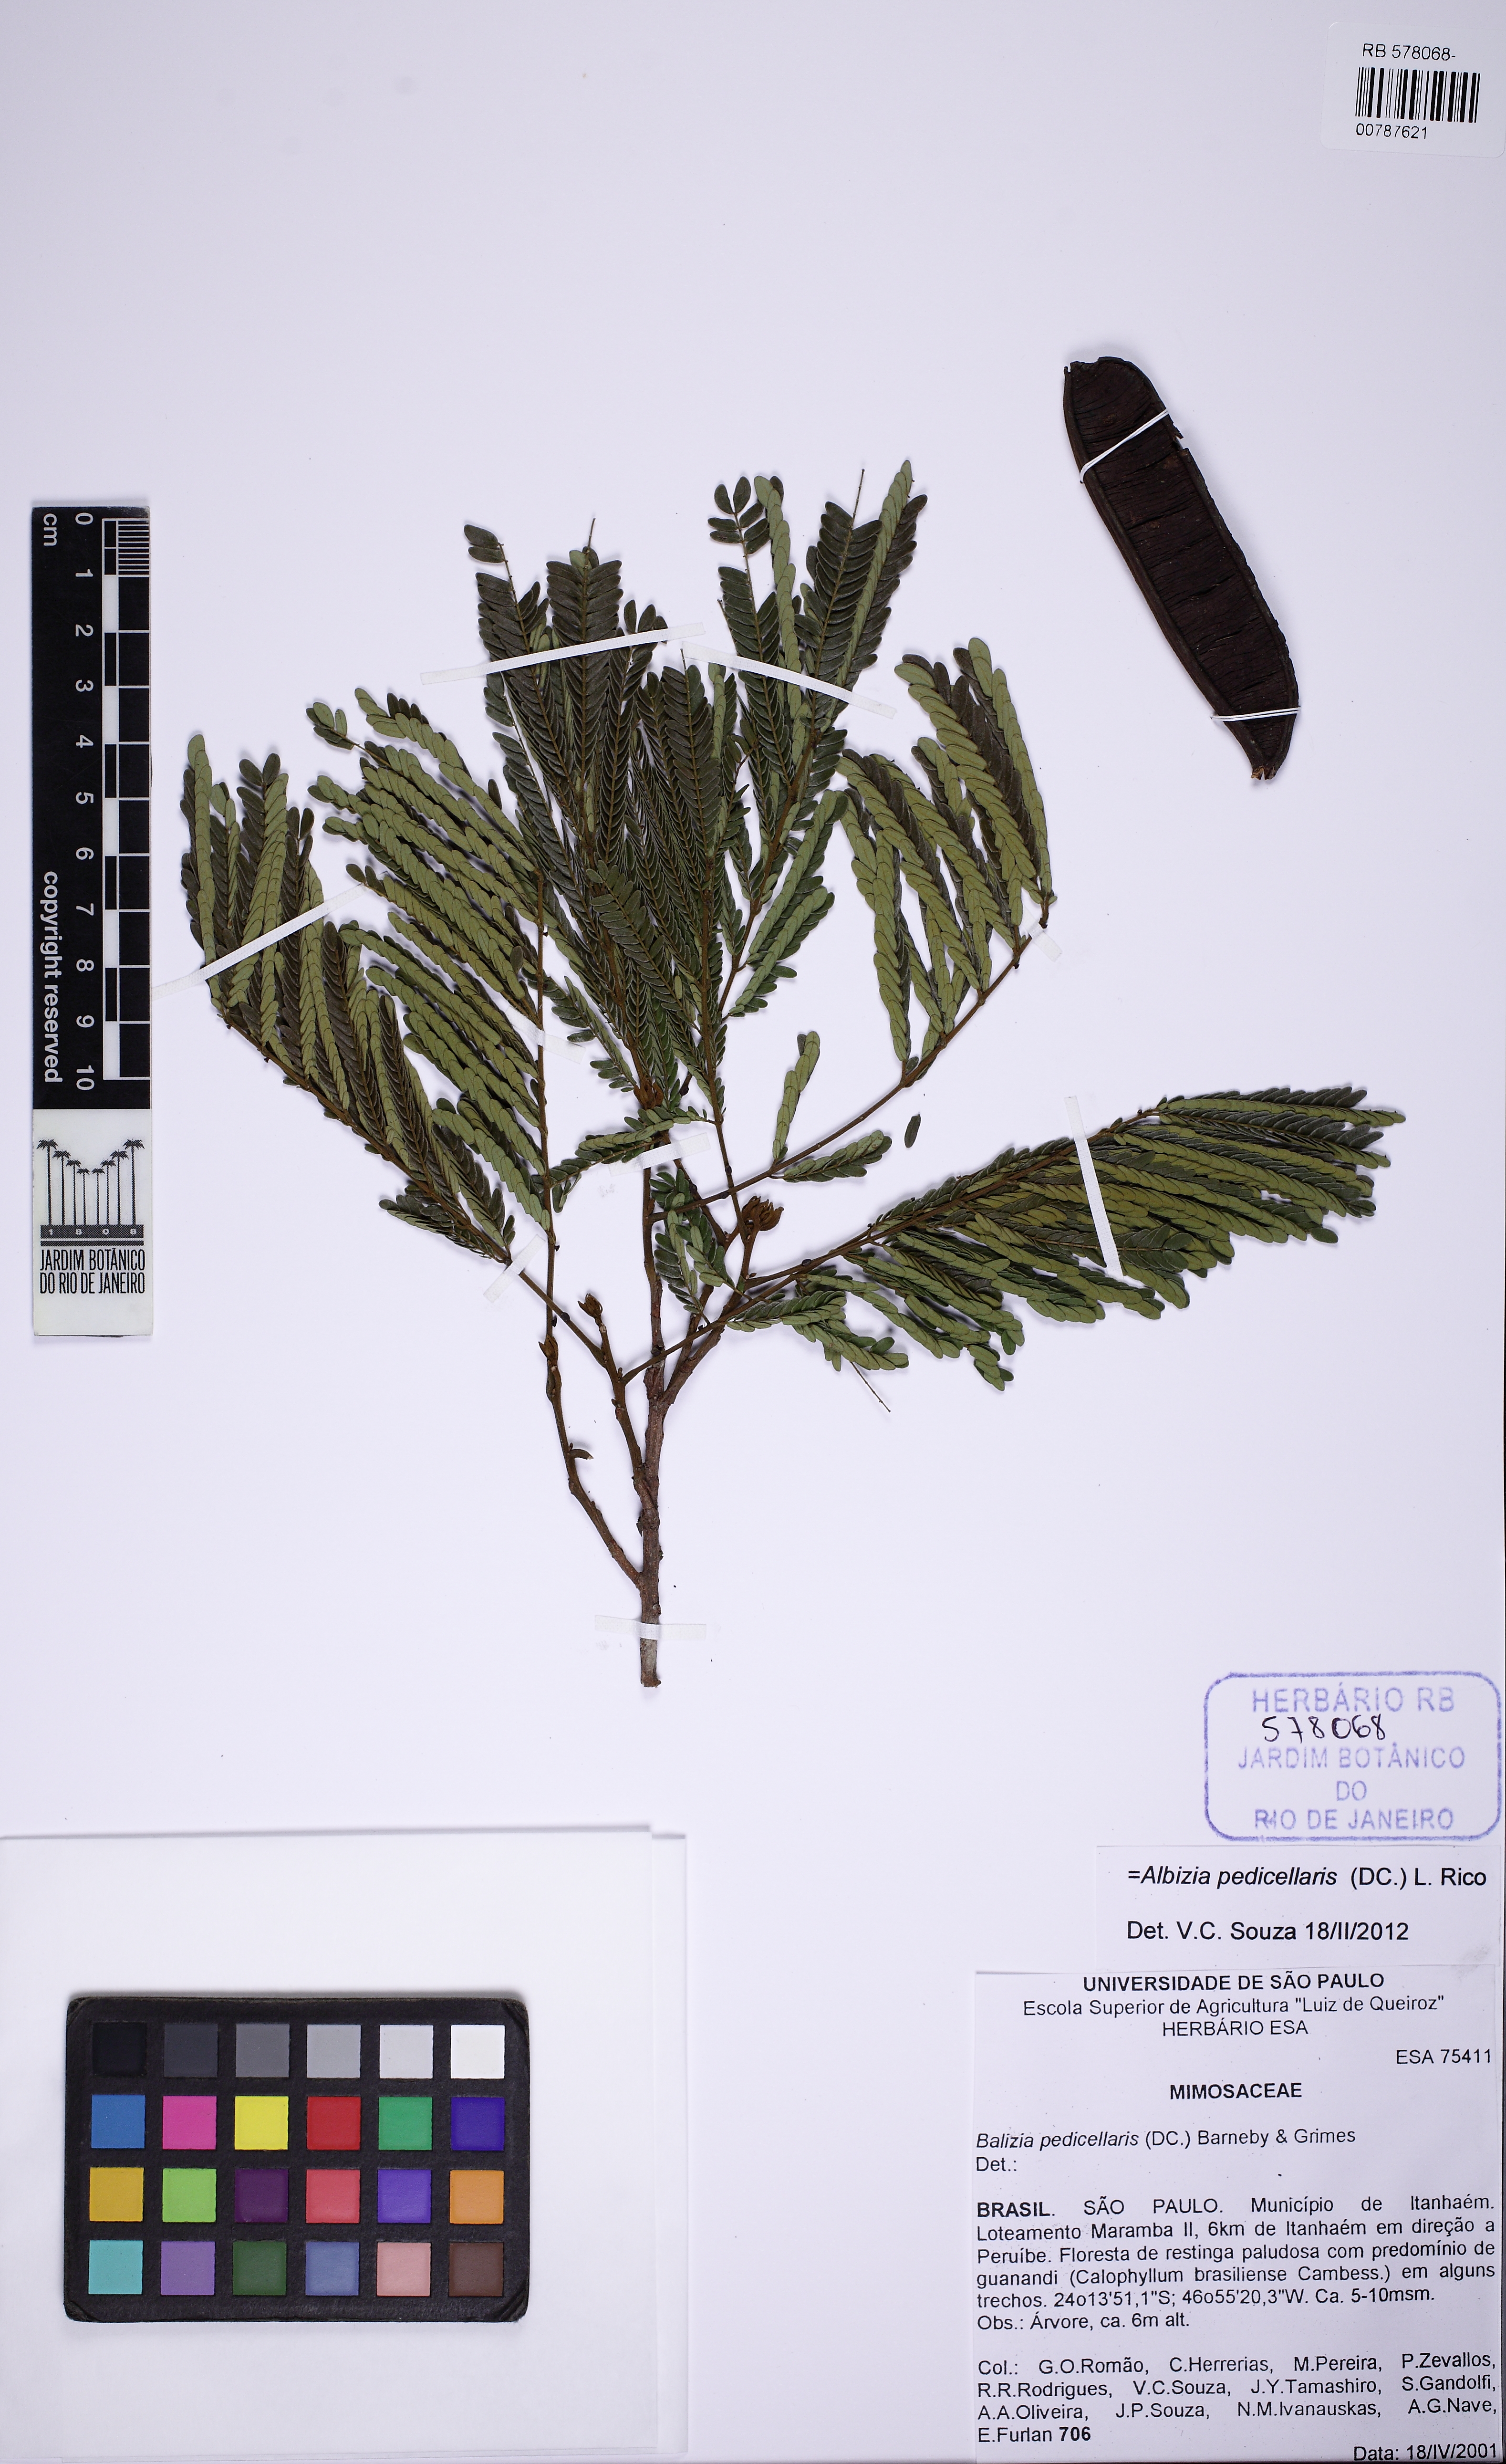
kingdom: Plantae
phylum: Tracheophyta
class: Magnoliopsida
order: Fabales
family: Fabaceae
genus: Balizia
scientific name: Balizia pedicellaris
